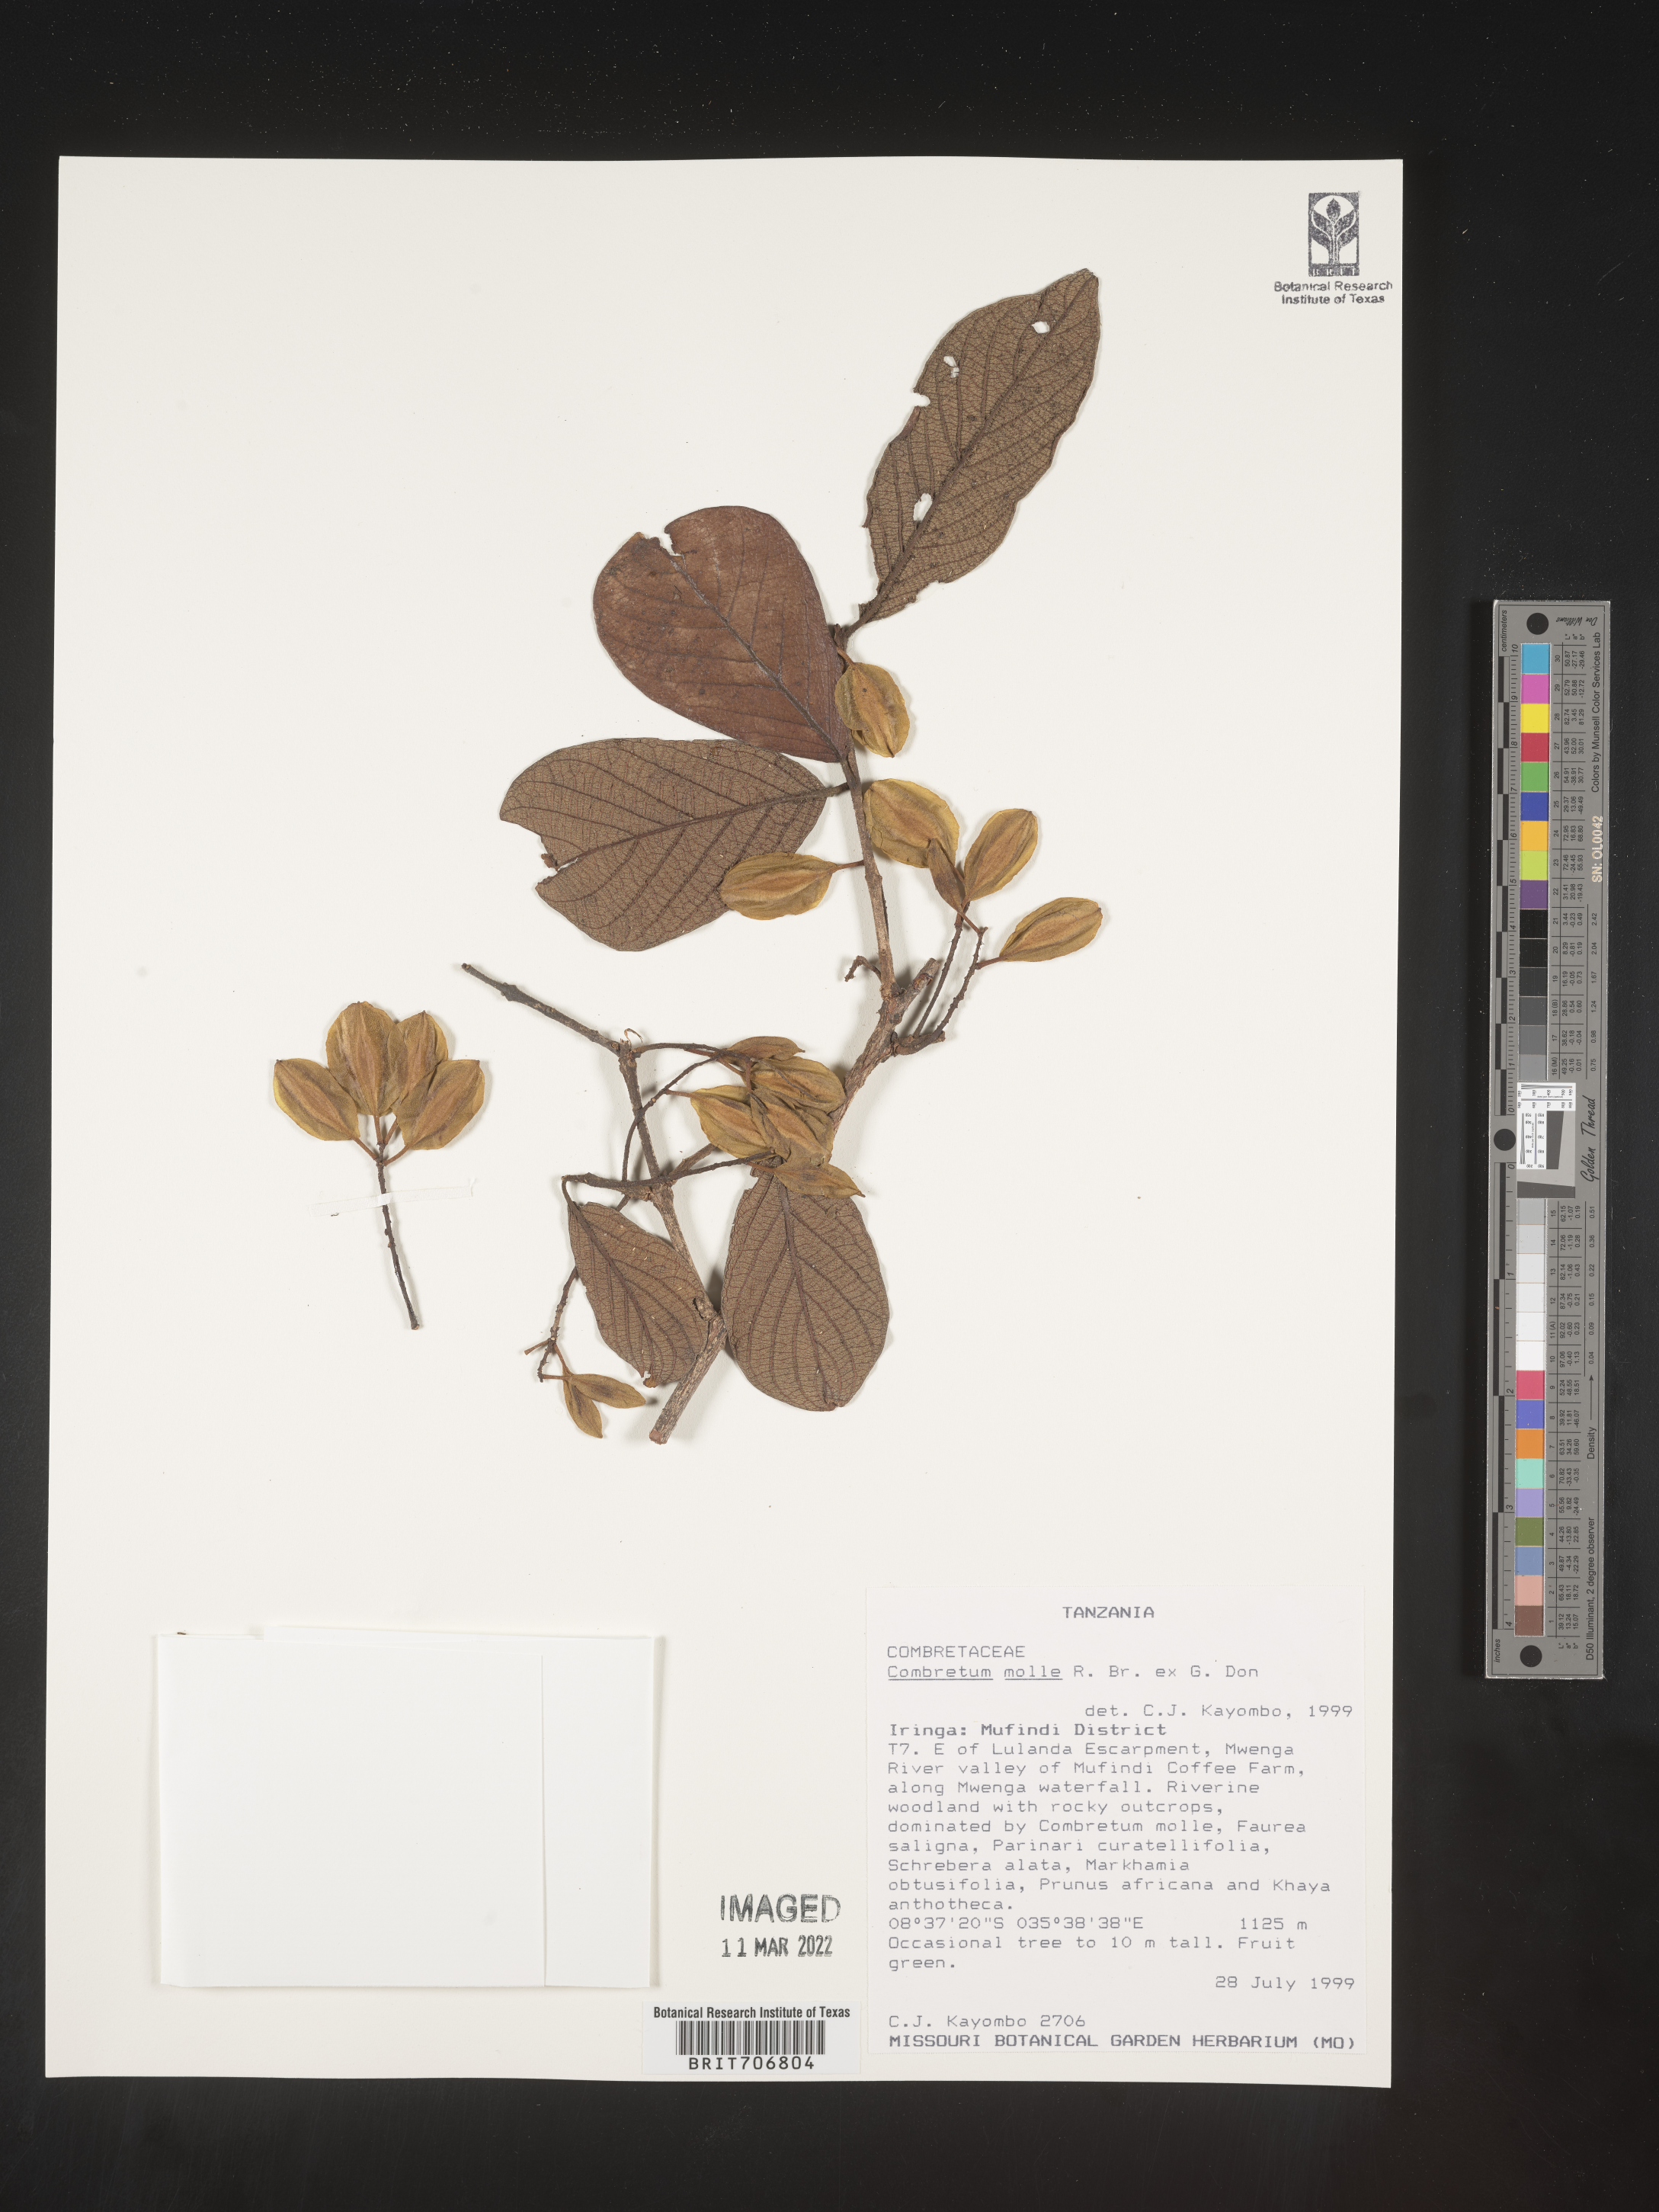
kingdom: Plantae
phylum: Tracheophyta
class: Magnoliopsida
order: Myrtales
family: Combretaceae
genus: Combretum
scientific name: Combretum
